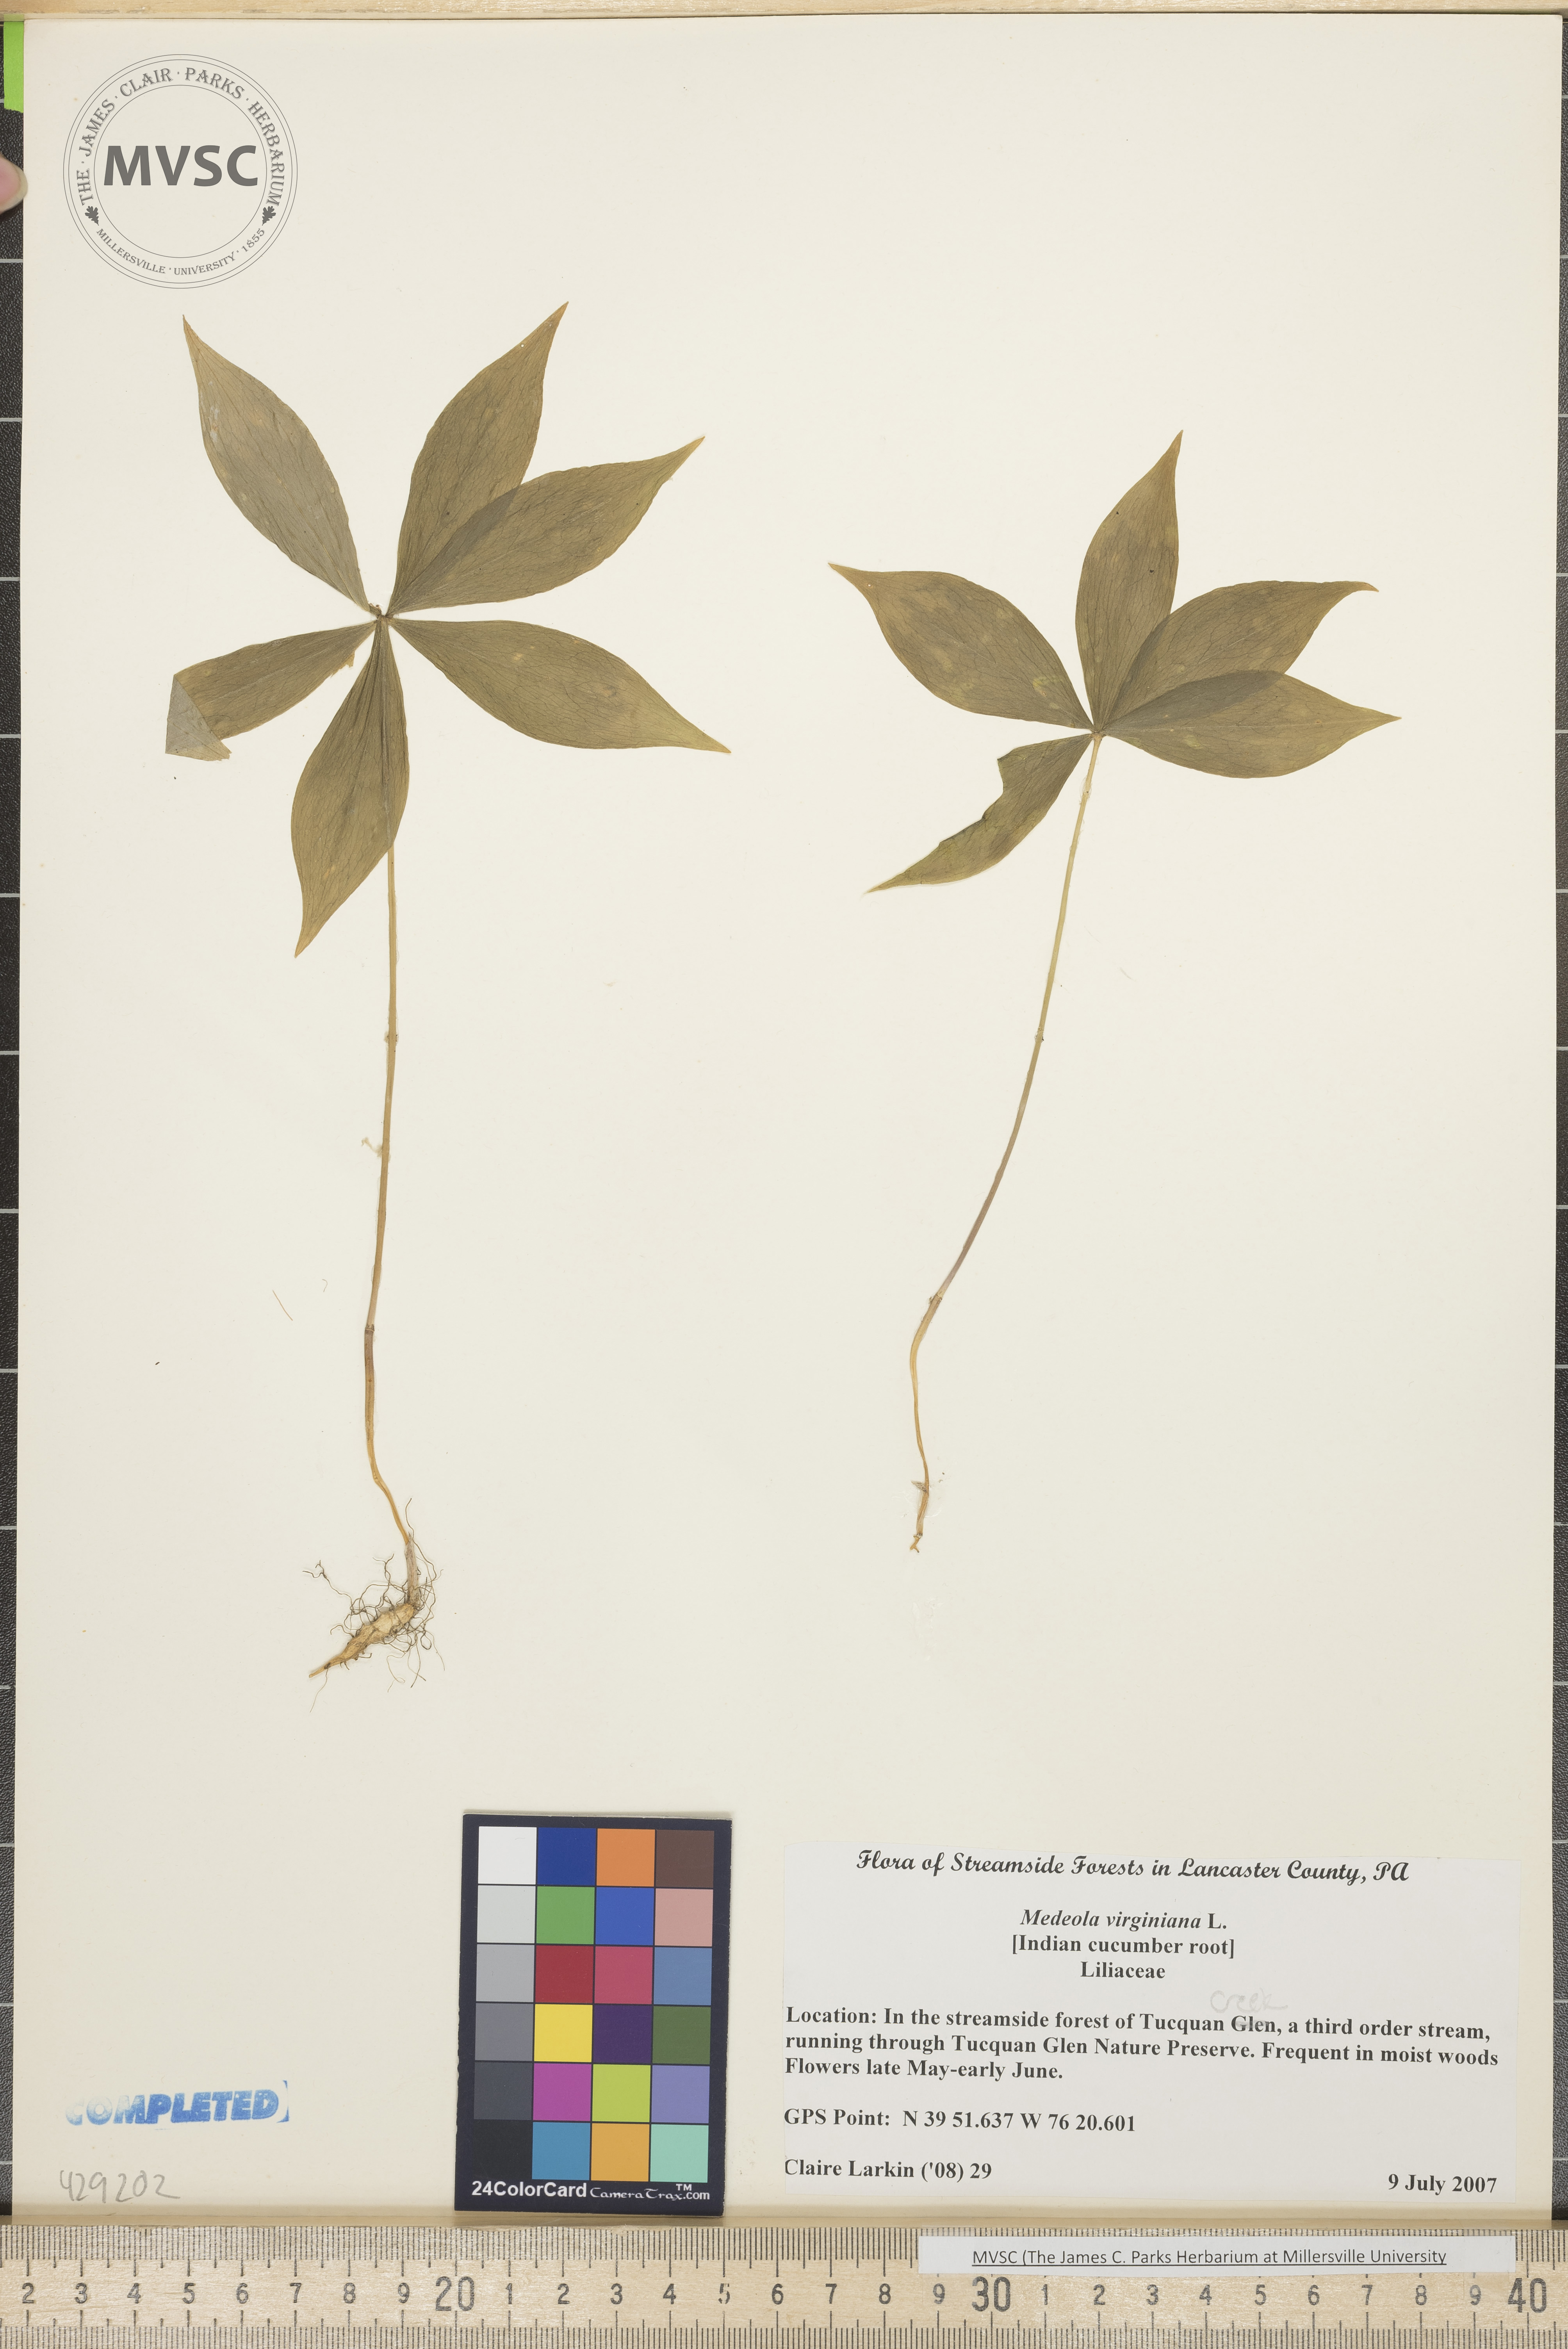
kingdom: Plantae
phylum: Tracheophyta
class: Liliopsida
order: Liliales
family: Liliaceae
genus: Medeola
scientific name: Medeola virginiana
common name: Indian cucumber root
